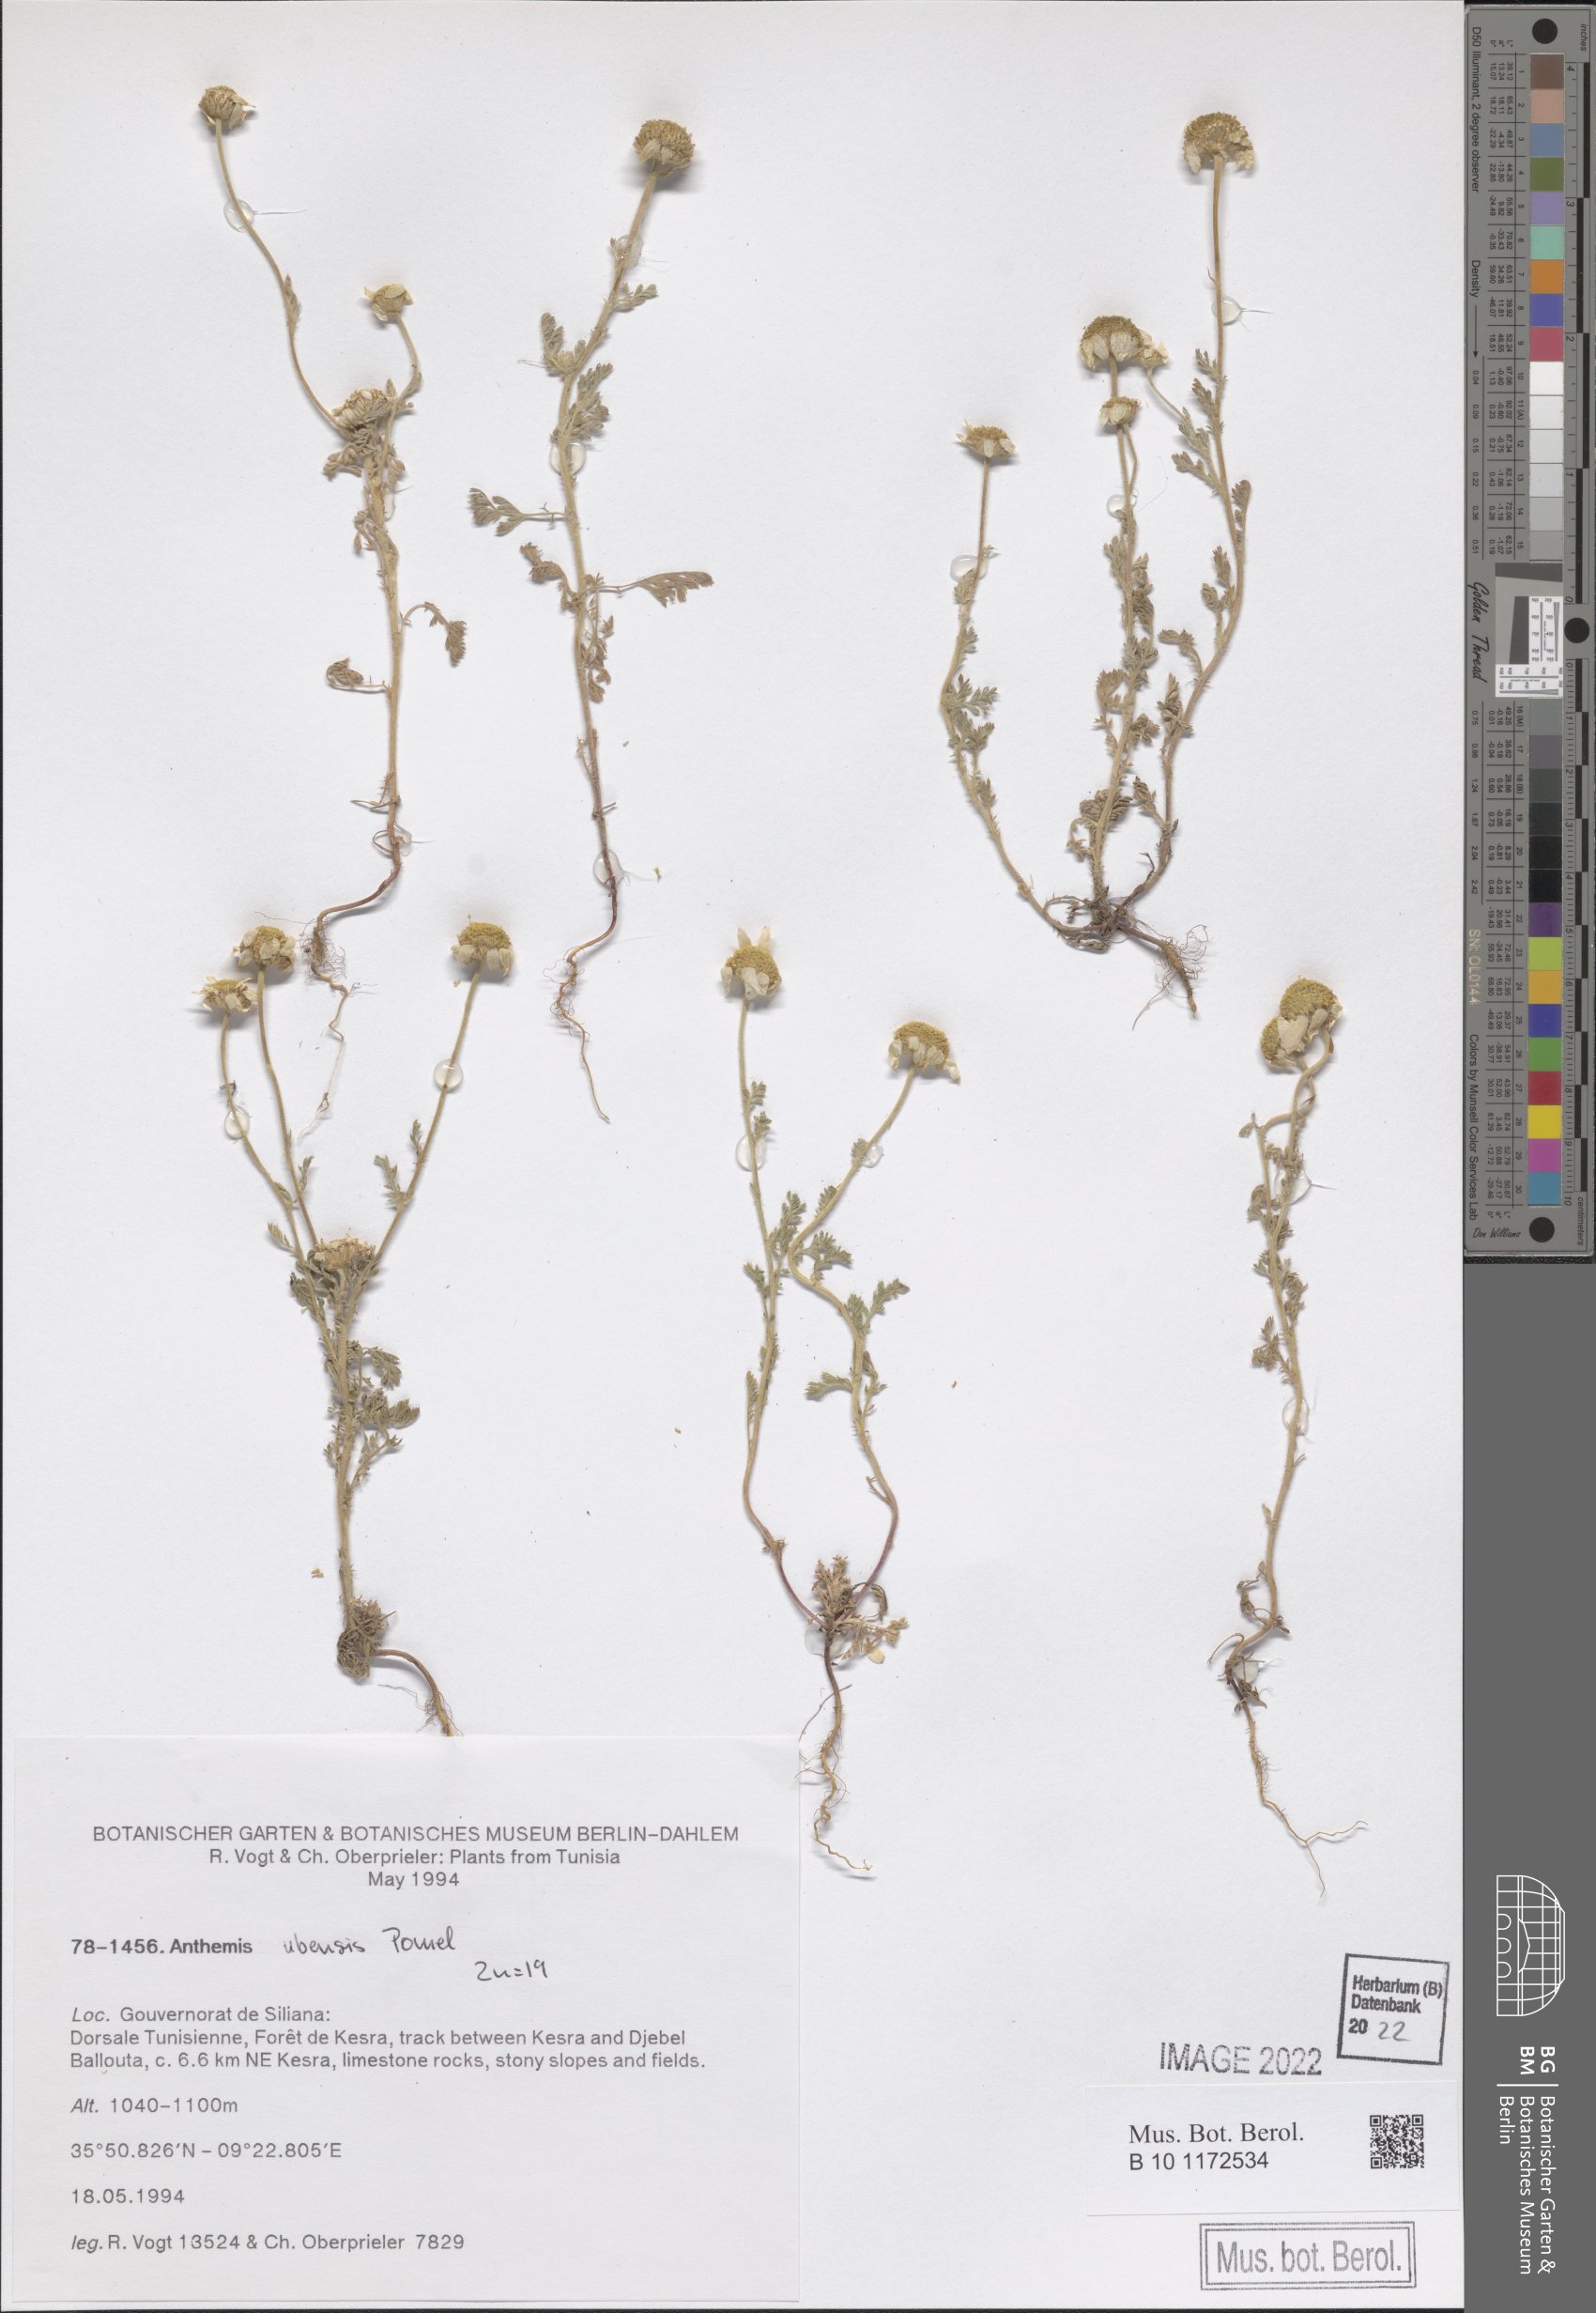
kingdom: Plantae
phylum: Tracheophyta
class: Magnoliopsida
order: Asterales
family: Asteraceae
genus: Anthemis
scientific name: Anthemis ubensis
